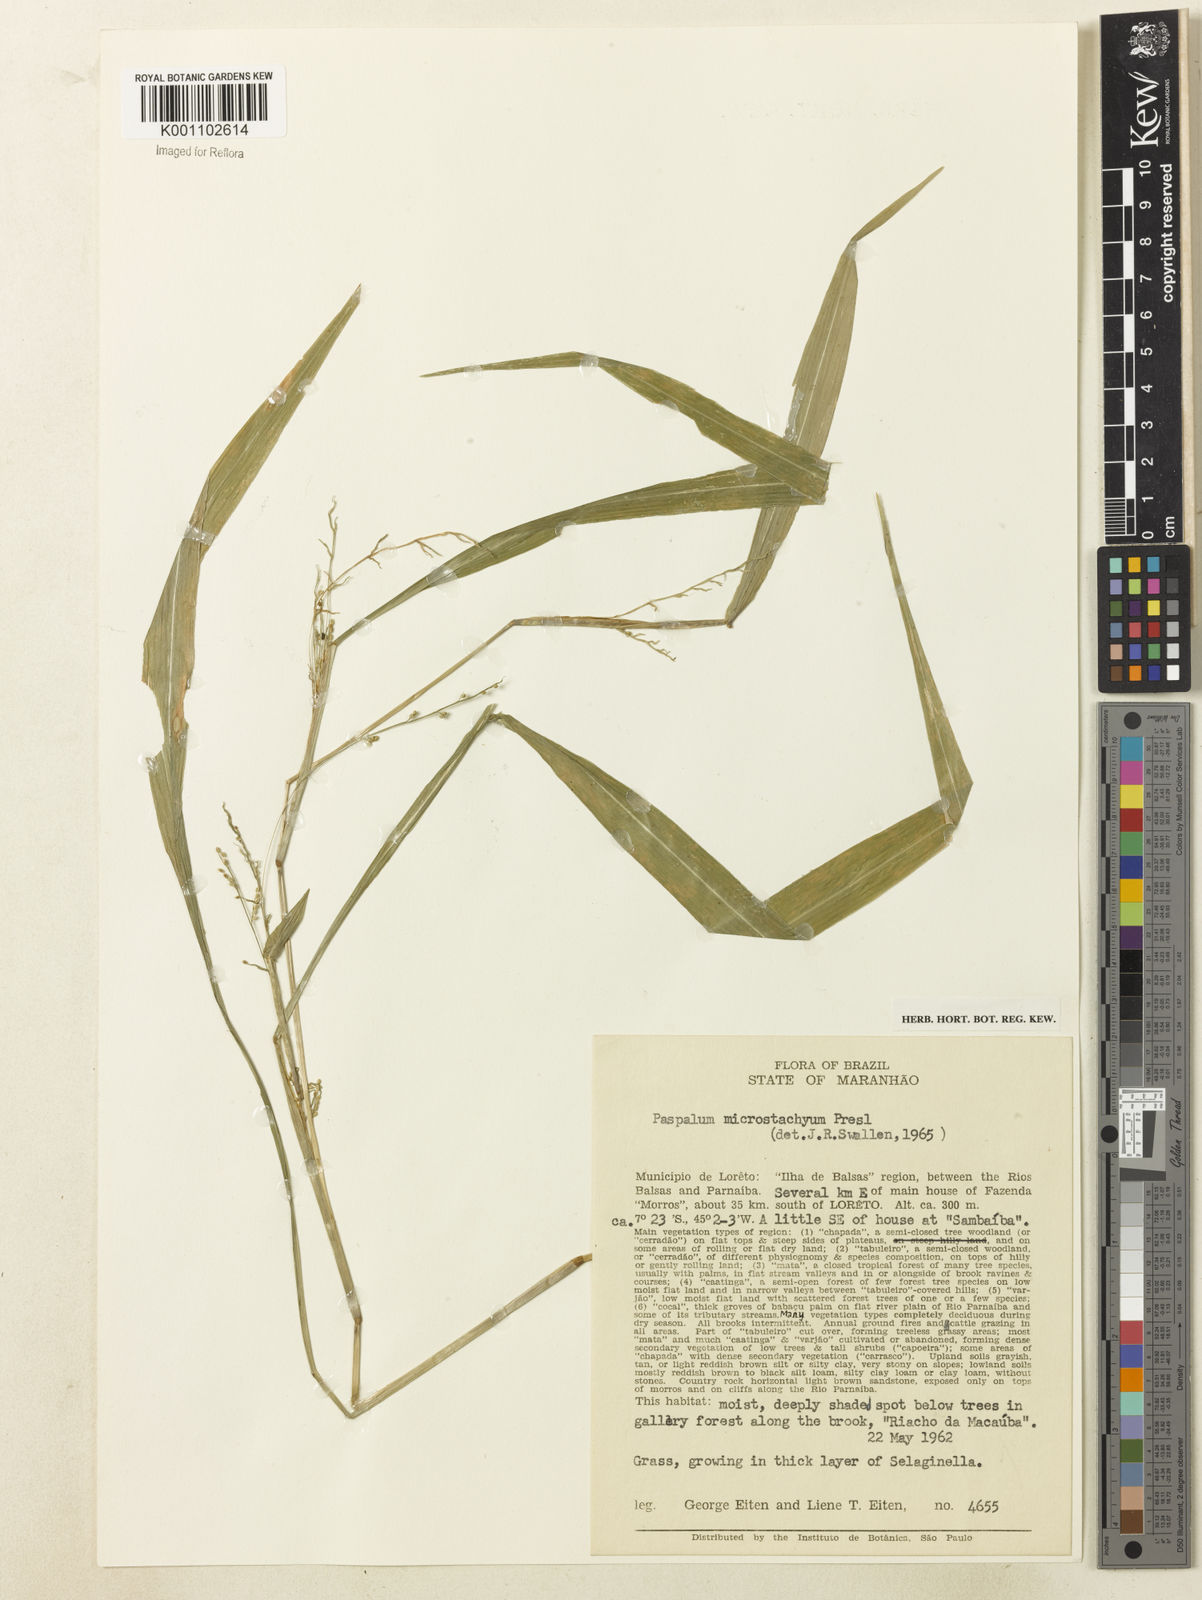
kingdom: Plantae
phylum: Tracheophyta
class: Liliopsida
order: Poales
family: Poaceae
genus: Paspalum
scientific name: Paspalum microstachyum
